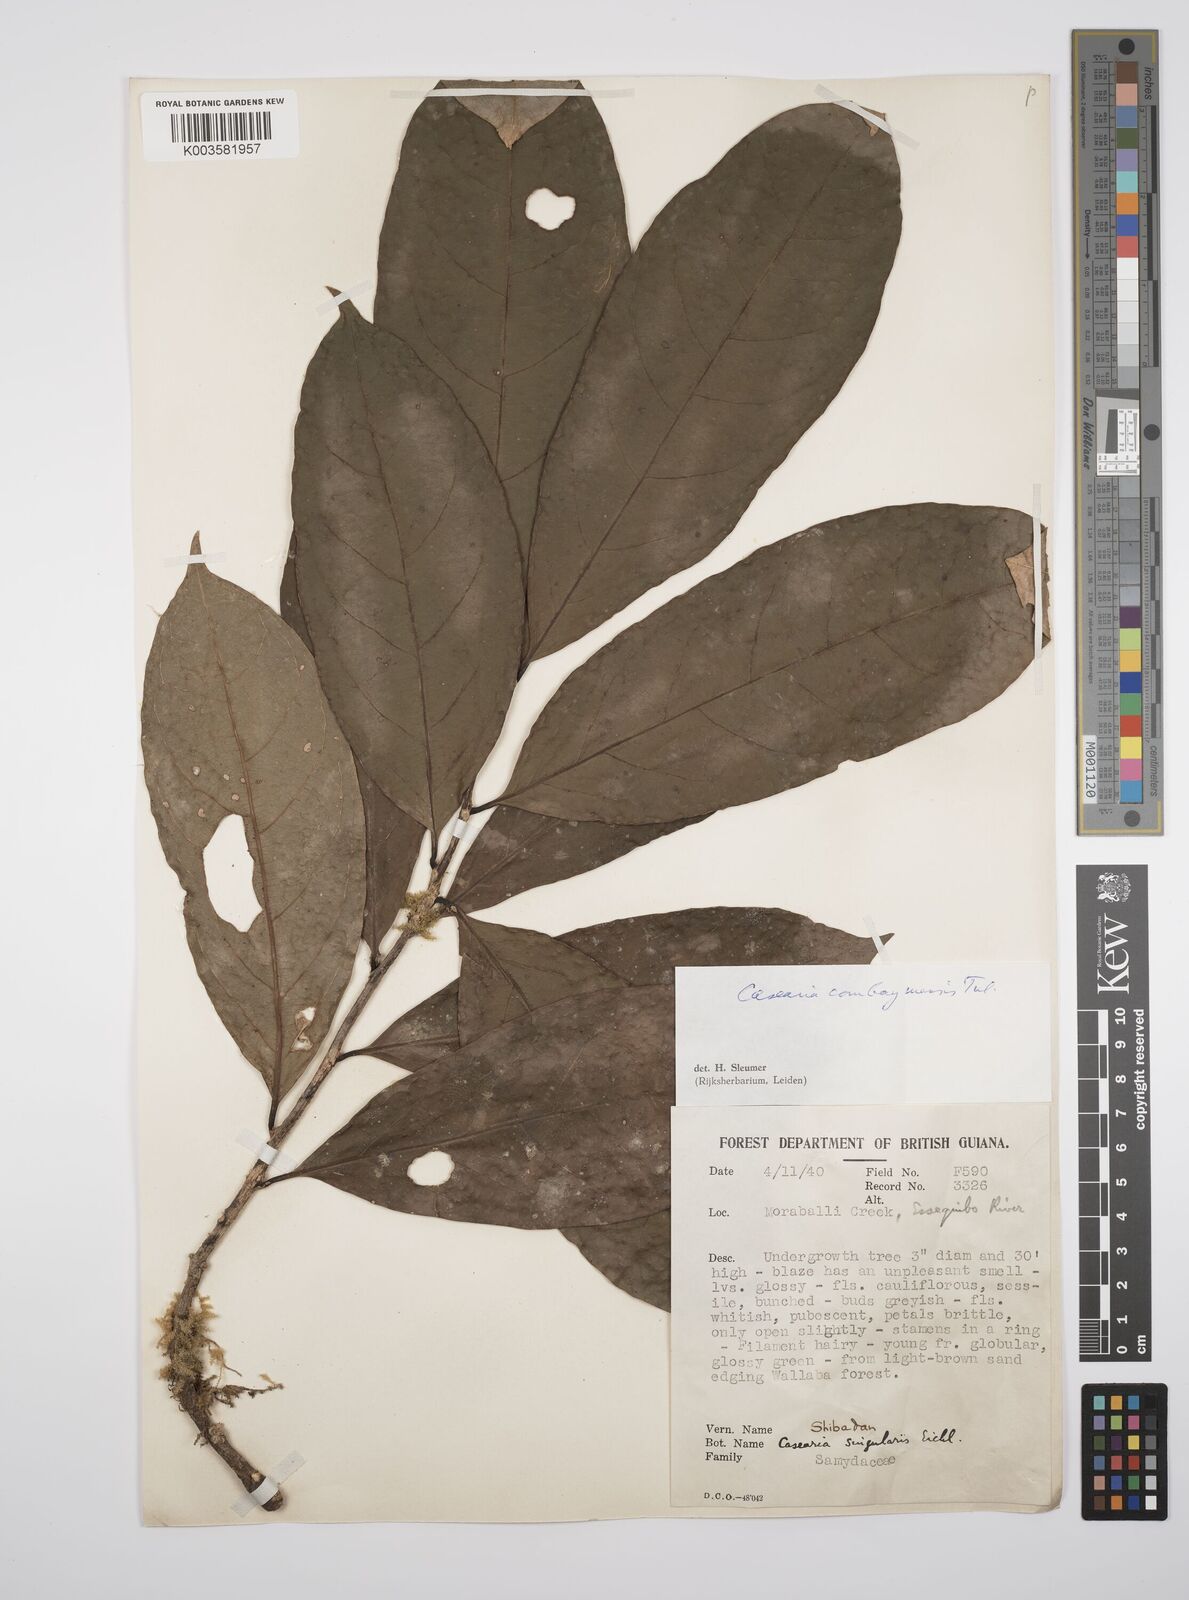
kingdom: Plantae
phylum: Tracheophyta
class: Magnoliopsida
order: Malpighiales
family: Salicaceae
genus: Casearia
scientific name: Casearia combaymensis
